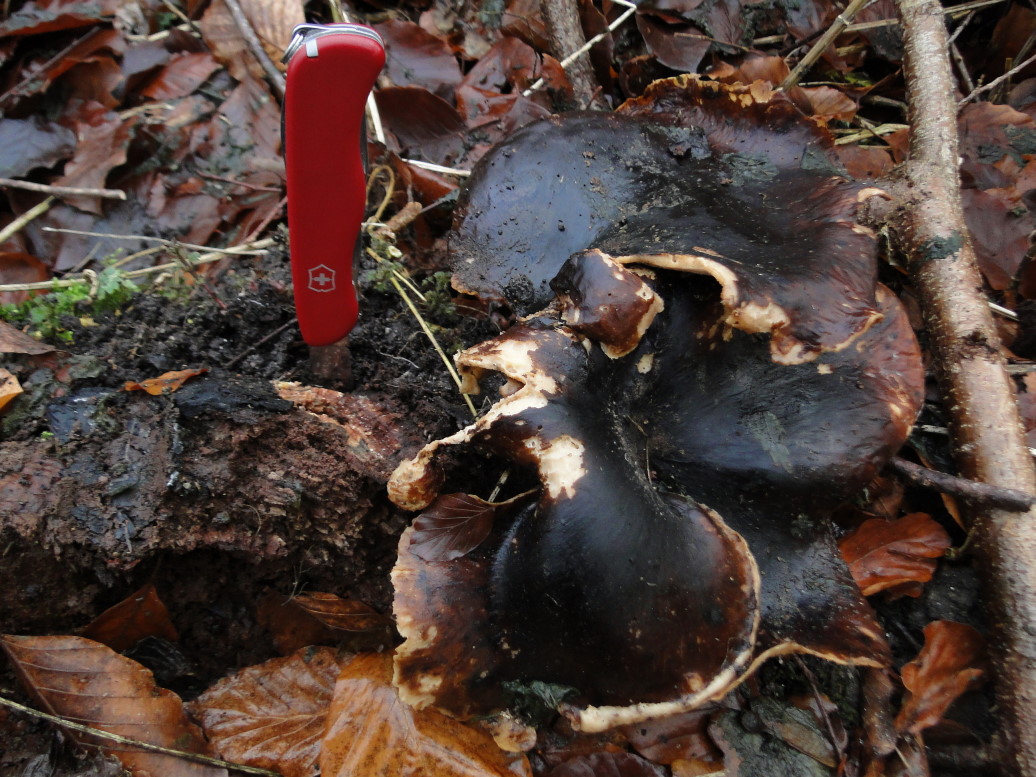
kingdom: Fungi
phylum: Basidiomycota
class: Agaricomycetes
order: Polyporales
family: Polyporaceae
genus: Picipes
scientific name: Picipes badius
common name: kastaniebrun stilkporesvamp
